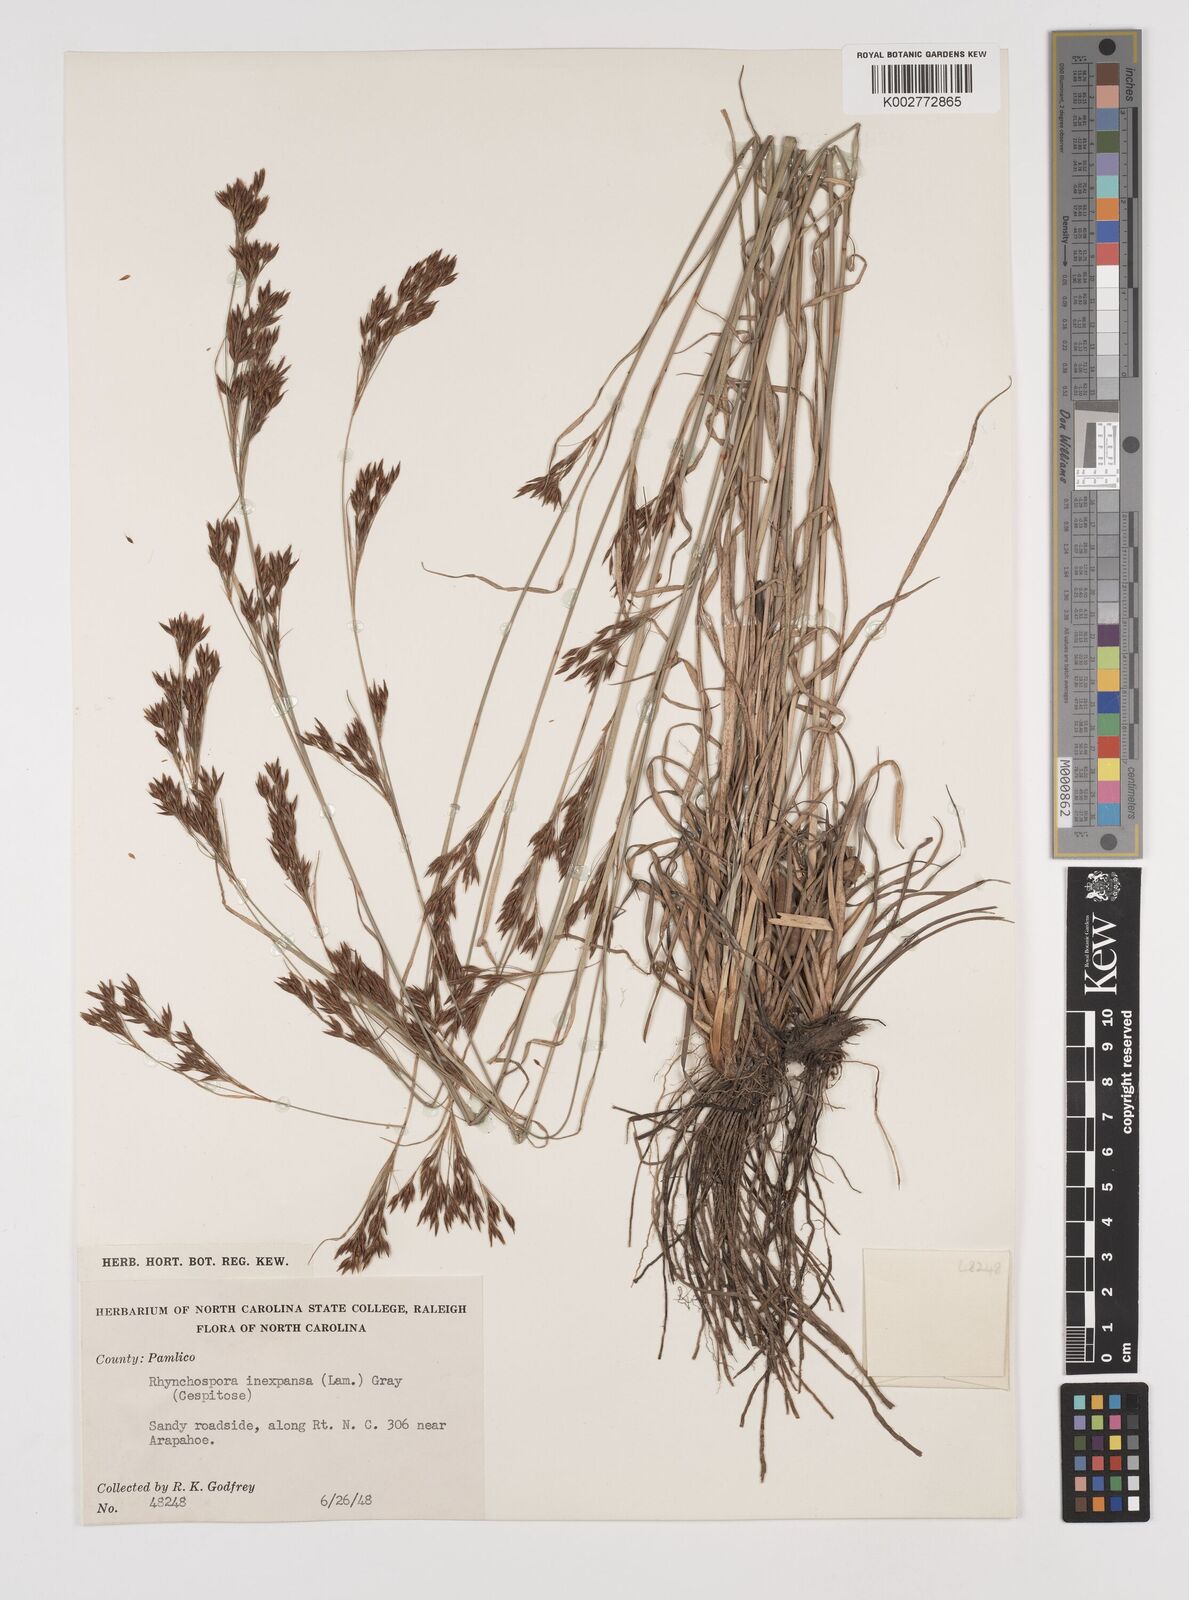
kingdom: Plantae
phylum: Tracheophyta
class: Liliopsida
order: Poales
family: Cyperaceae
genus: Rhynchospora
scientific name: Rhynchospora inexpansa
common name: Nodding beaksedge
